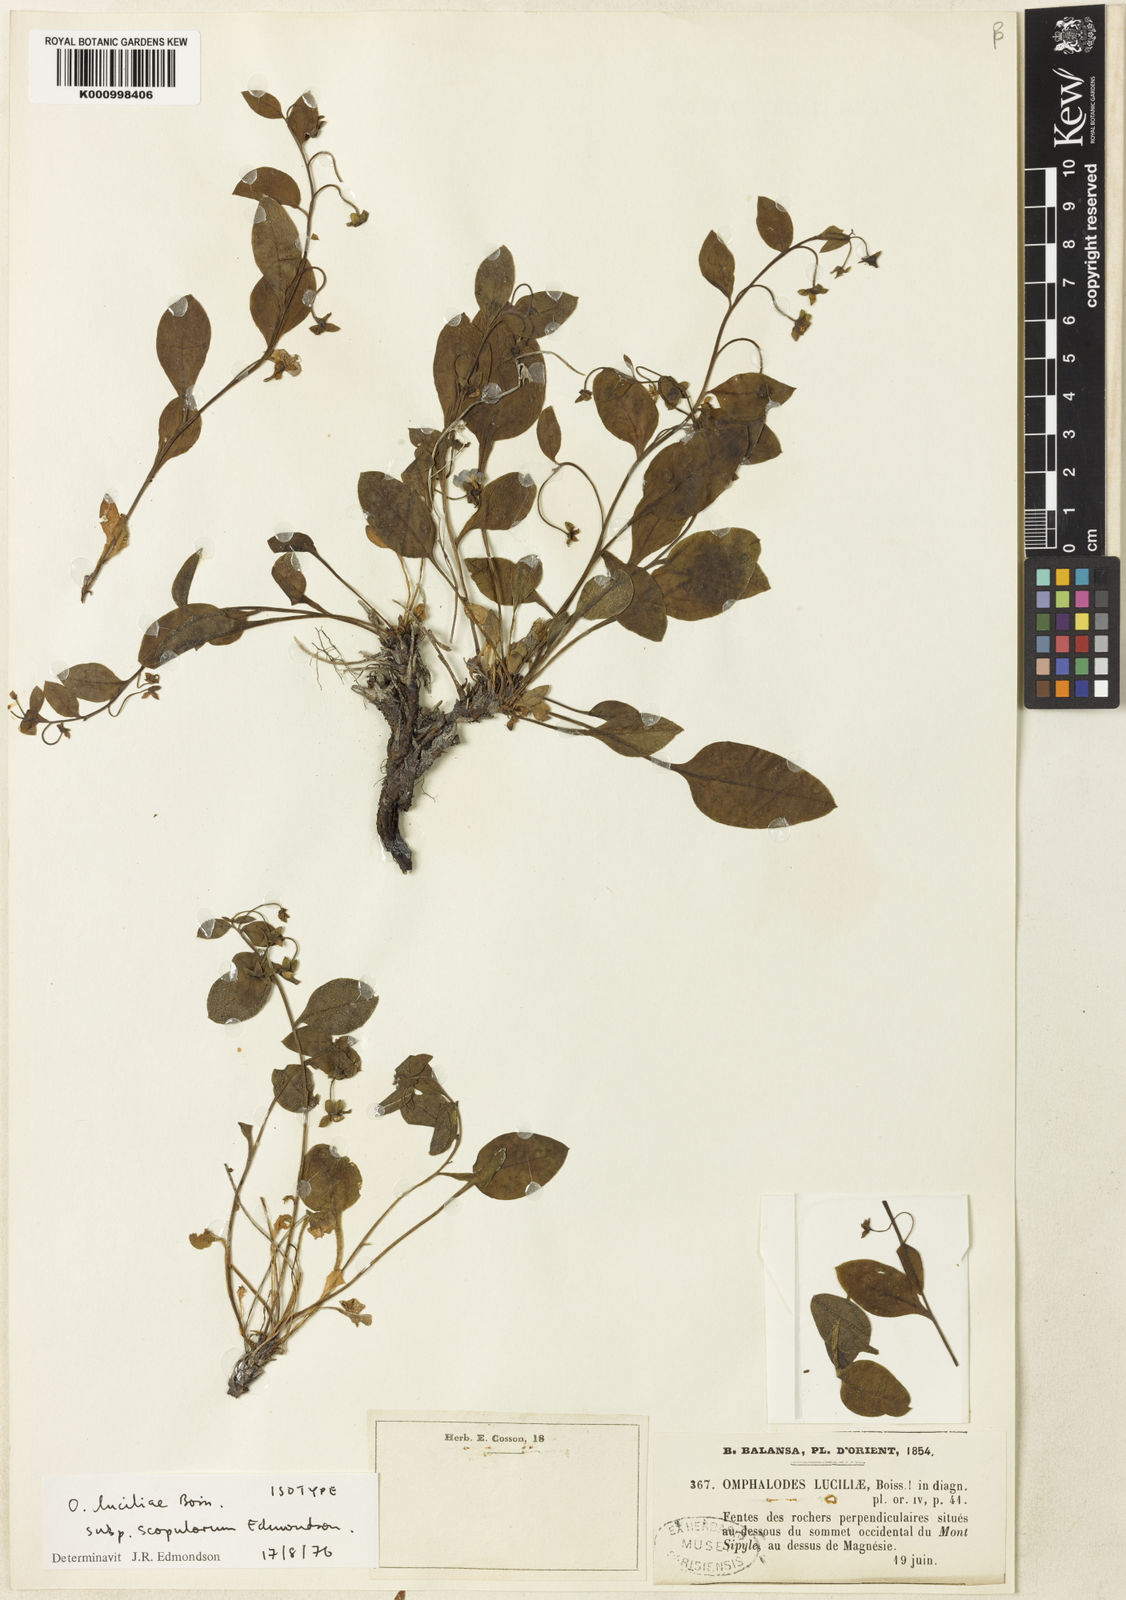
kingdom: Plantae
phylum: Tracheophyta
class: Magnoliopsida
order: Boraginales
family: Boraginaceae
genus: Omphalodes
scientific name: Omphalodes luciliae
